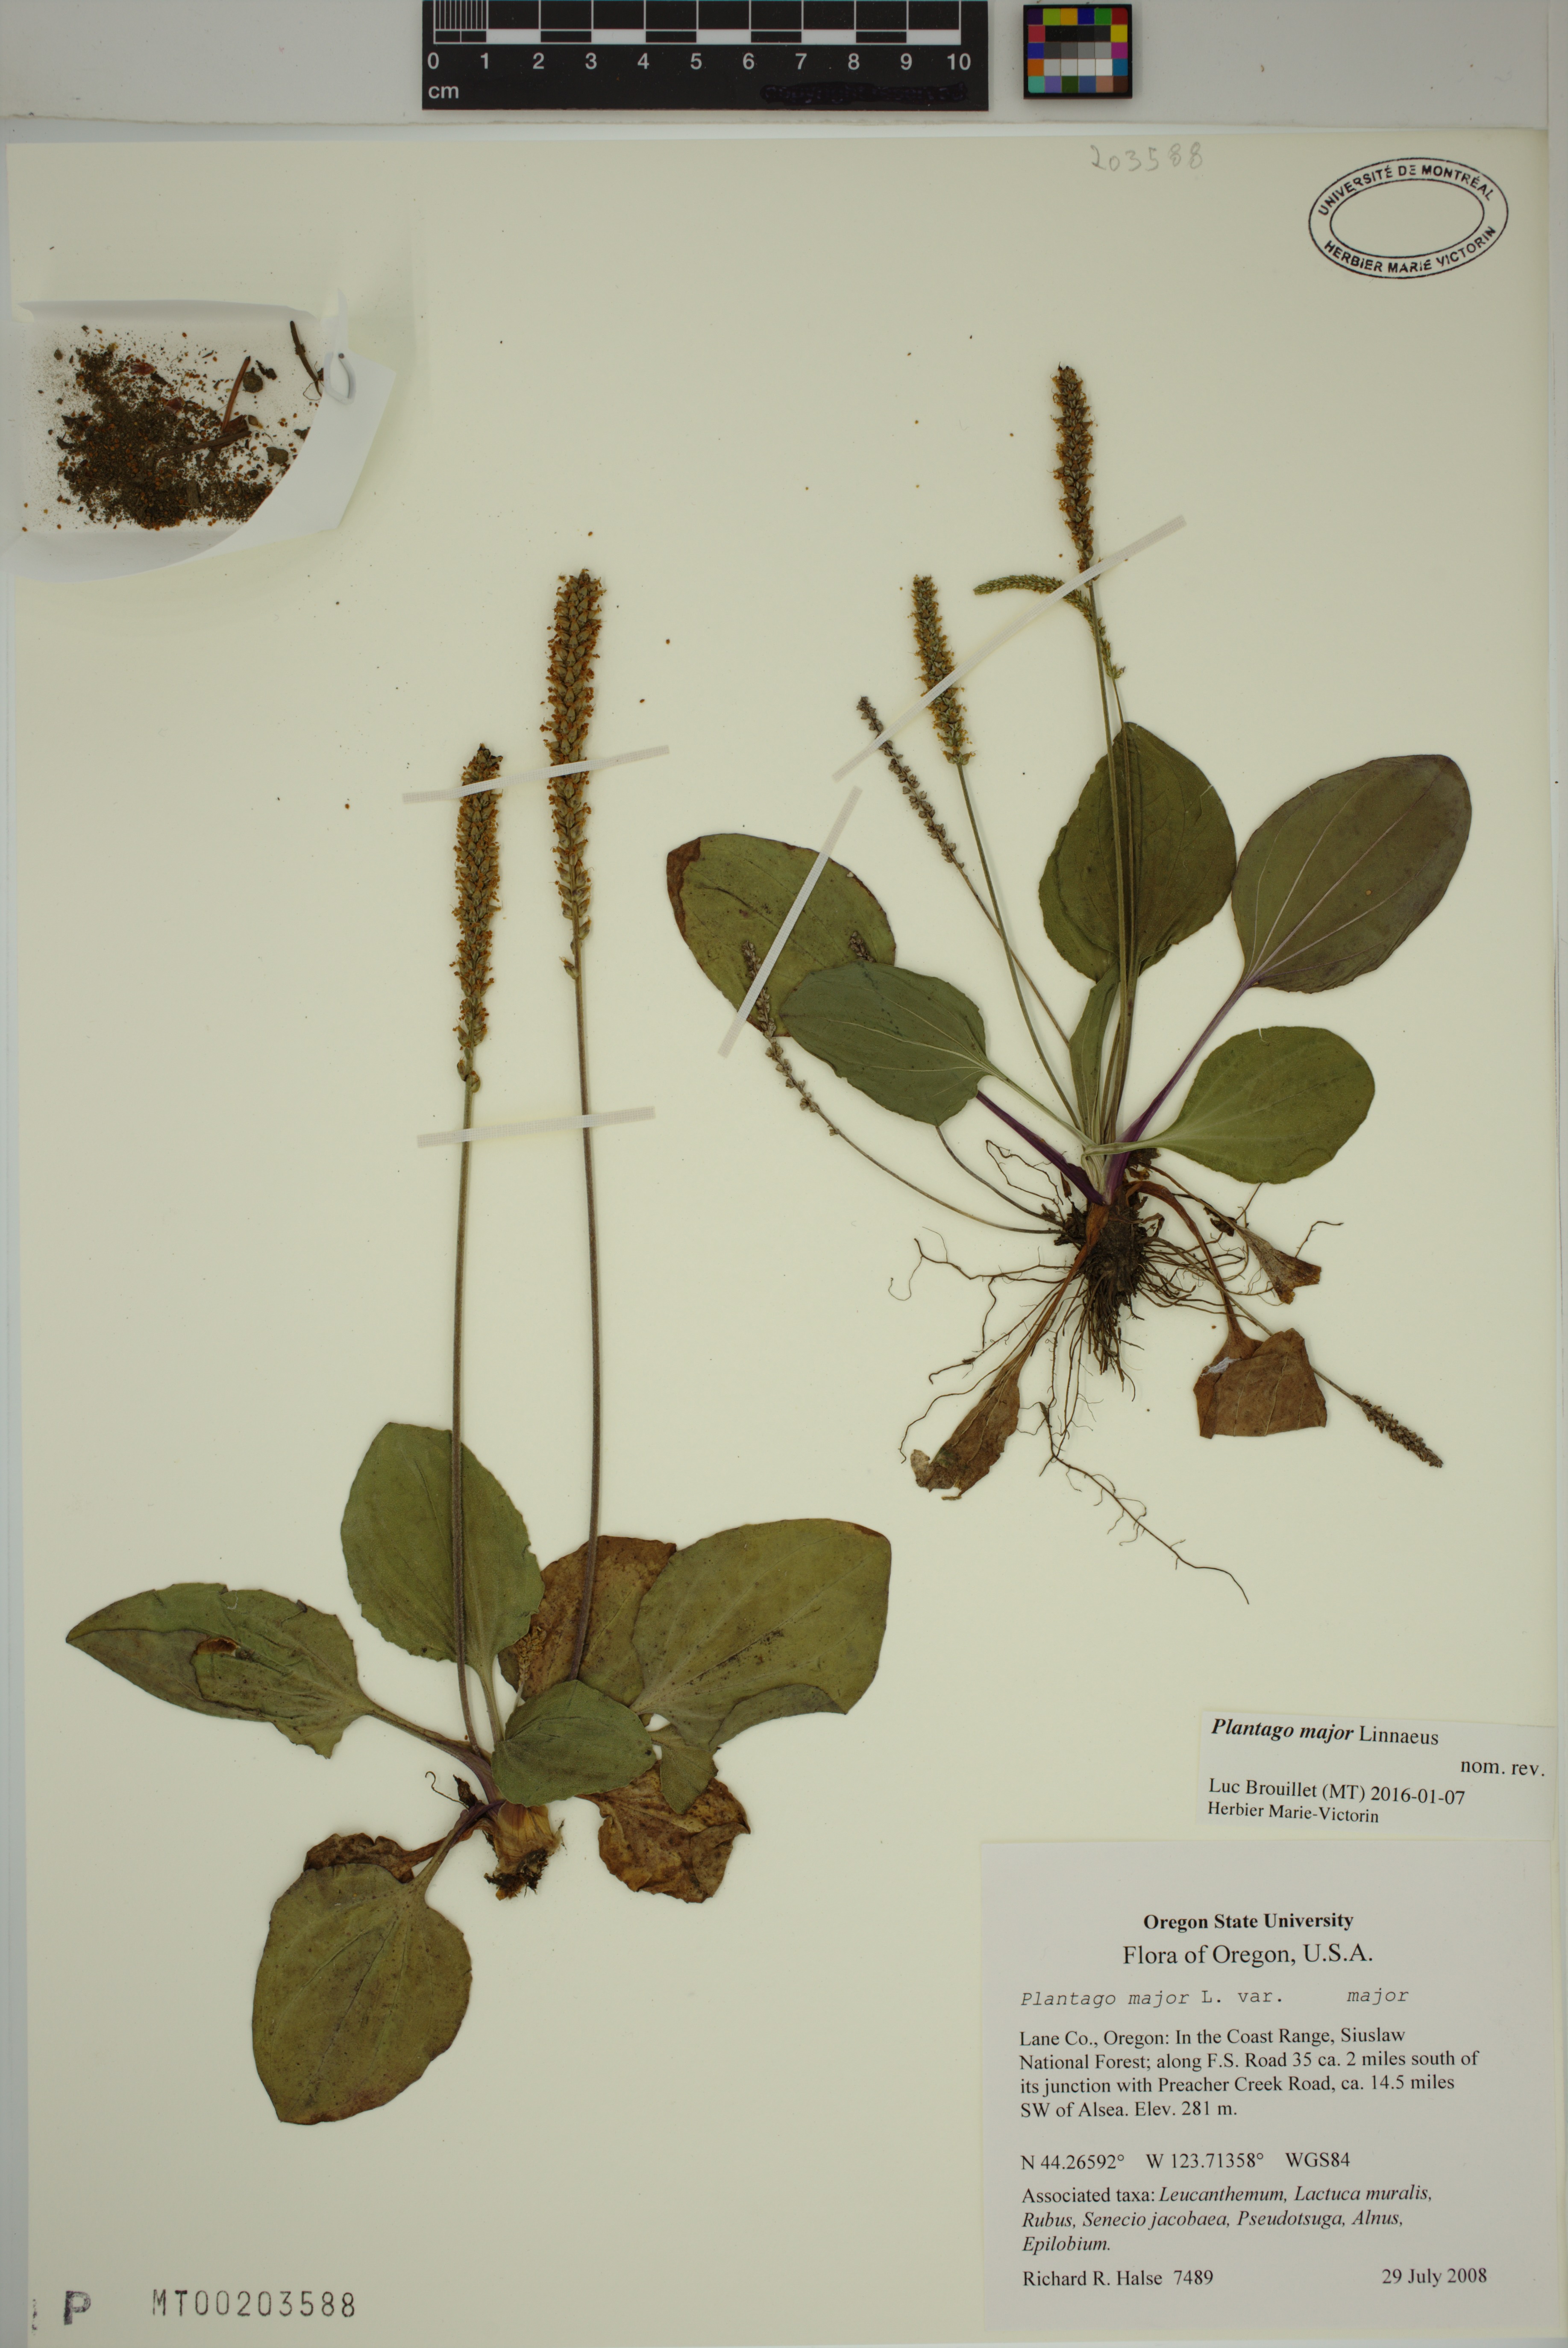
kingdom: Plantae
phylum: Tracheophyta
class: Magnoliopsida
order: Lamiales
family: Plantaginaceae
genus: Plantago
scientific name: Plantago major
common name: Common plantain
